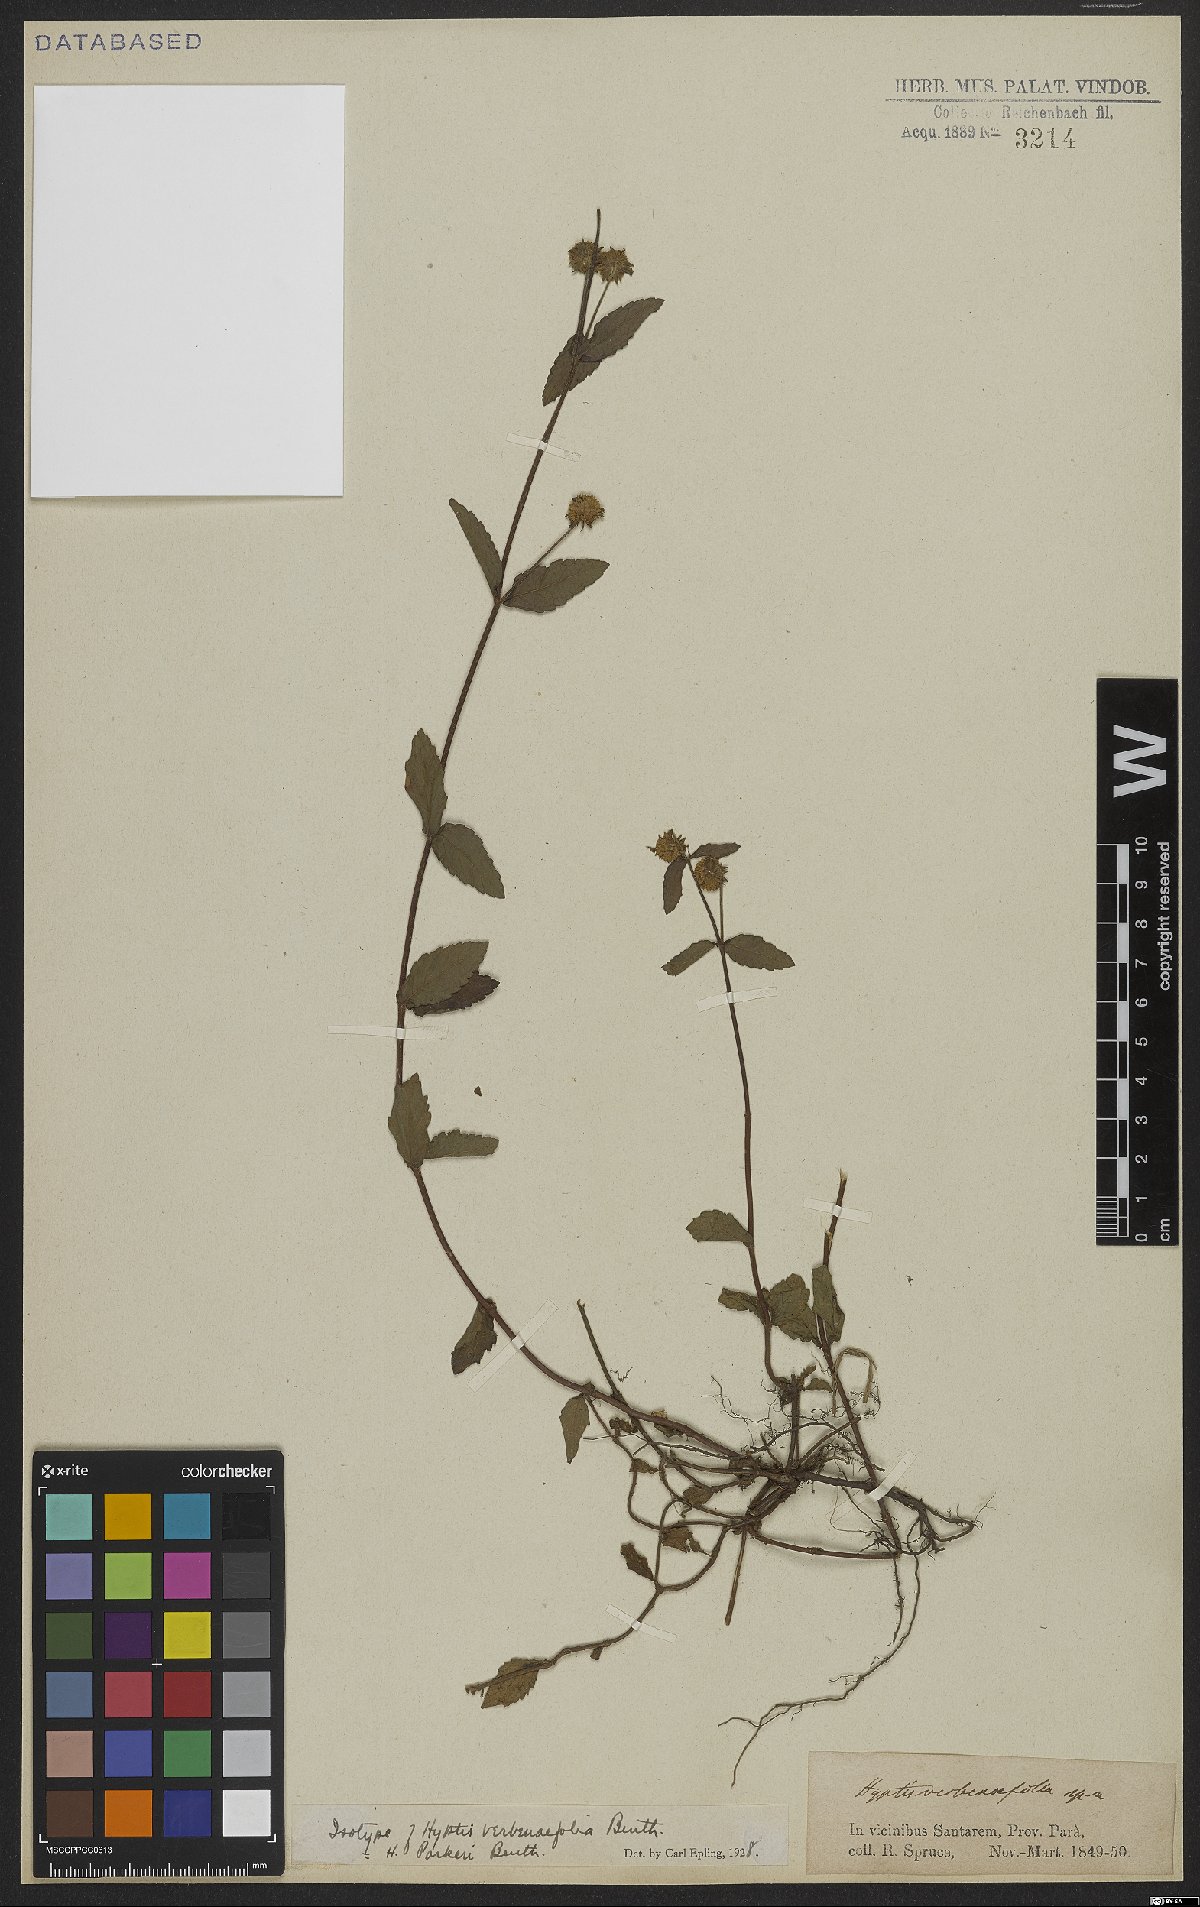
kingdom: Plantae
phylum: Tracheophyta
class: Magnoliopsida
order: Lamiales
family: Lamiaceae
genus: Hyptis
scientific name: Hyptis parkeri
